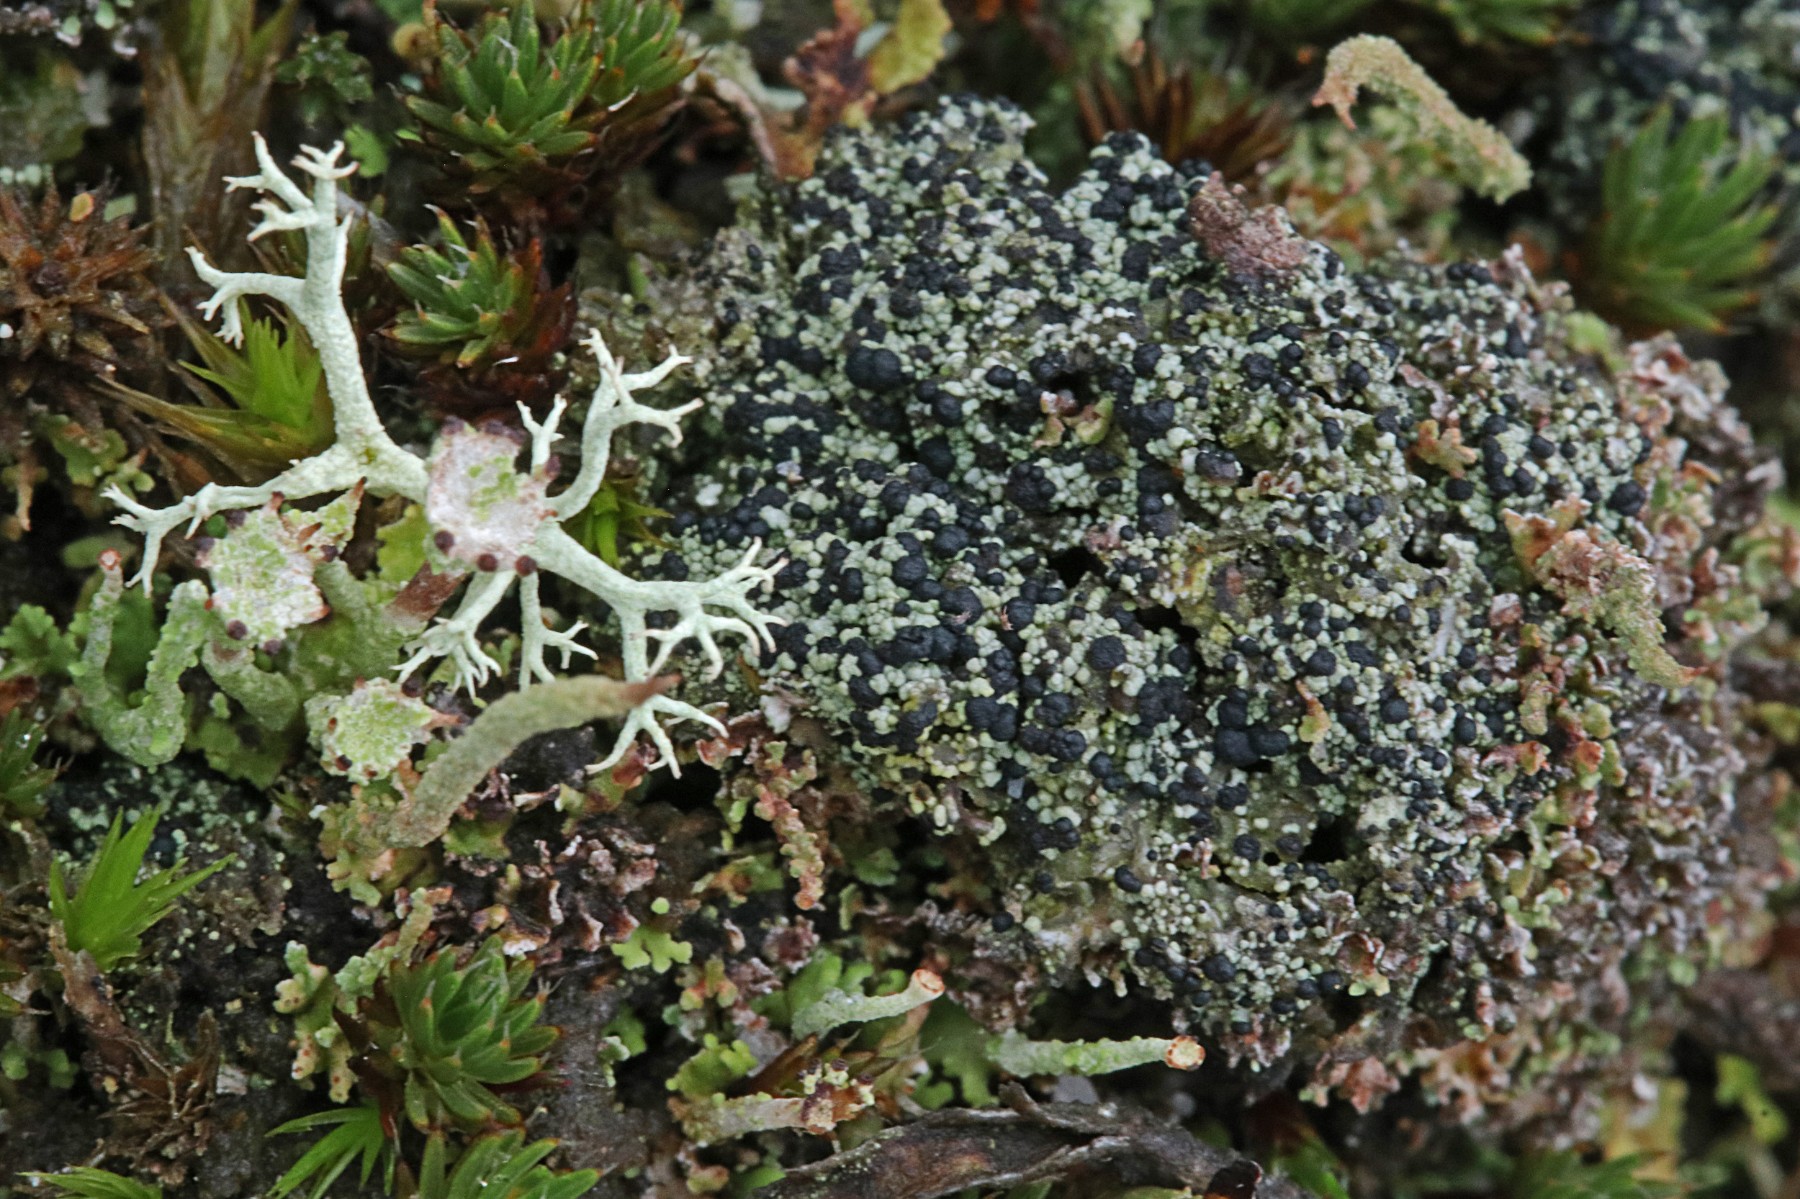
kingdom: Fungi
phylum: Ascomycota
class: Lecanoromycetes
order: Lecanorales
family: Byssolomataceae
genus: Micarea
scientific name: Micarea lignaria
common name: tørve-knaplav
